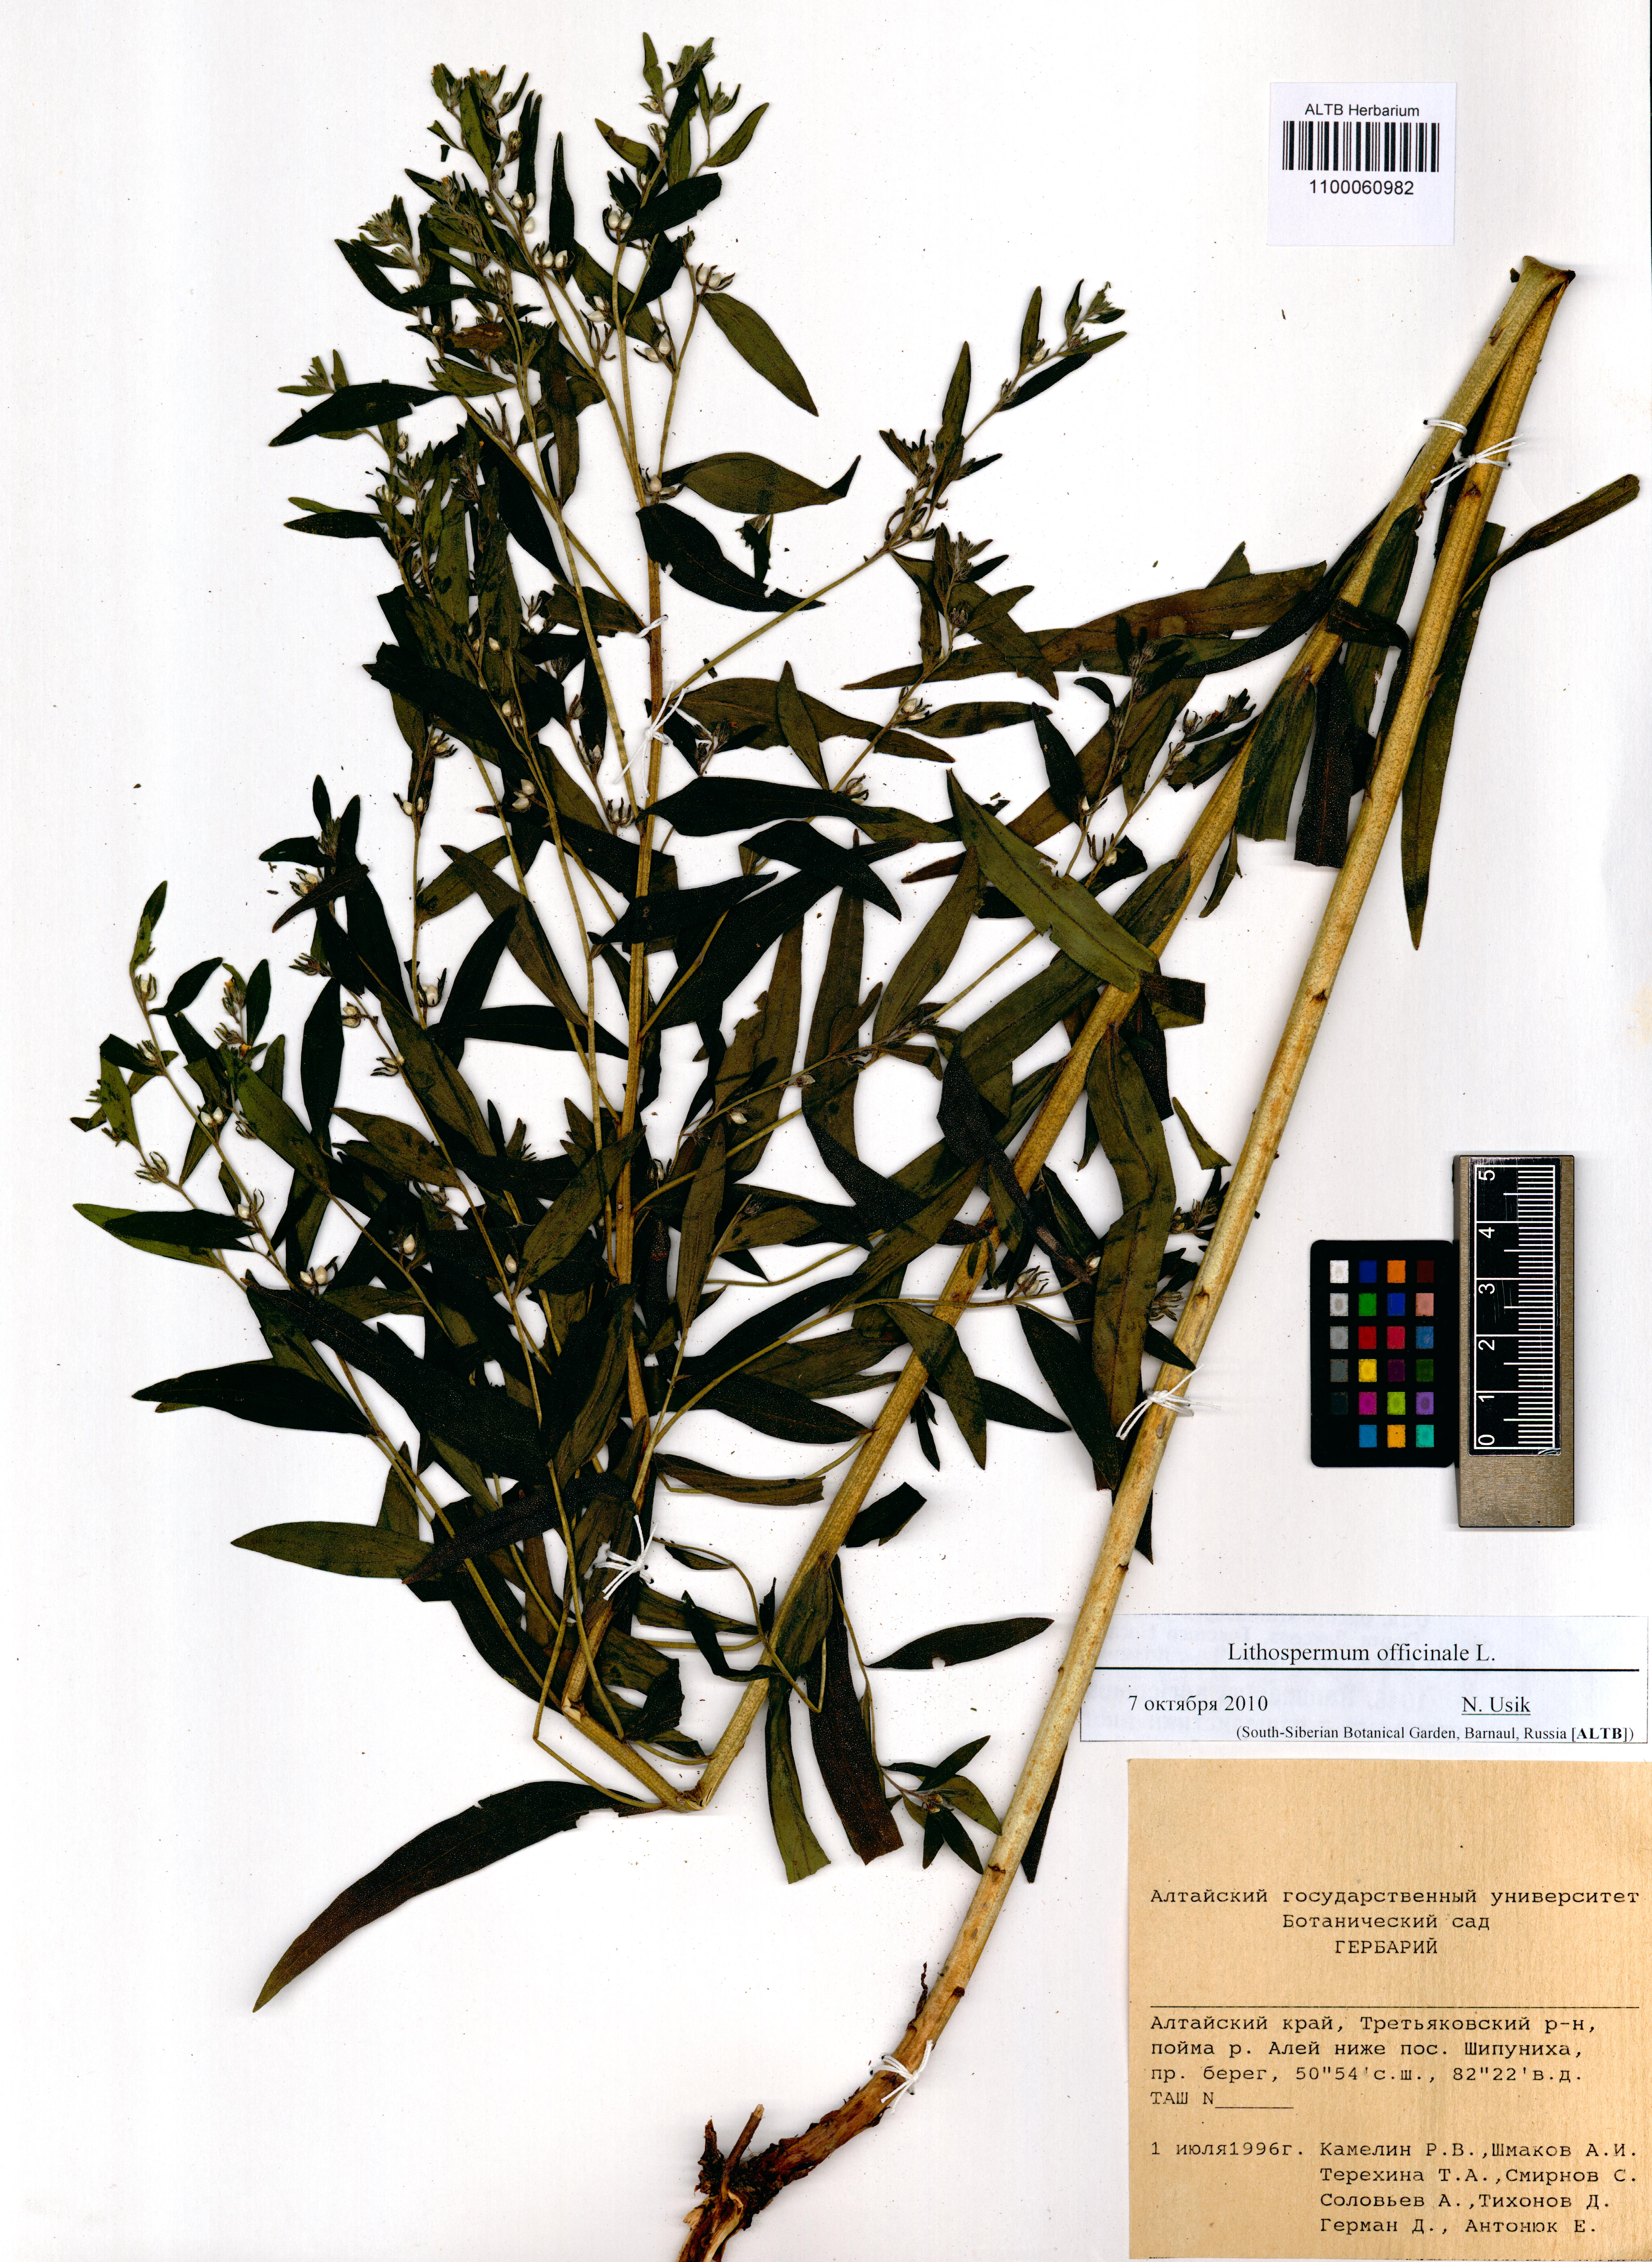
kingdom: Plantae
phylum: Tracheophyta
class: Magnoliopsida
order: Boraginales
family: Boraginaceae
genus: Lithospermum
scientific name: Lithospermum officinale
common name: Common gromwell
